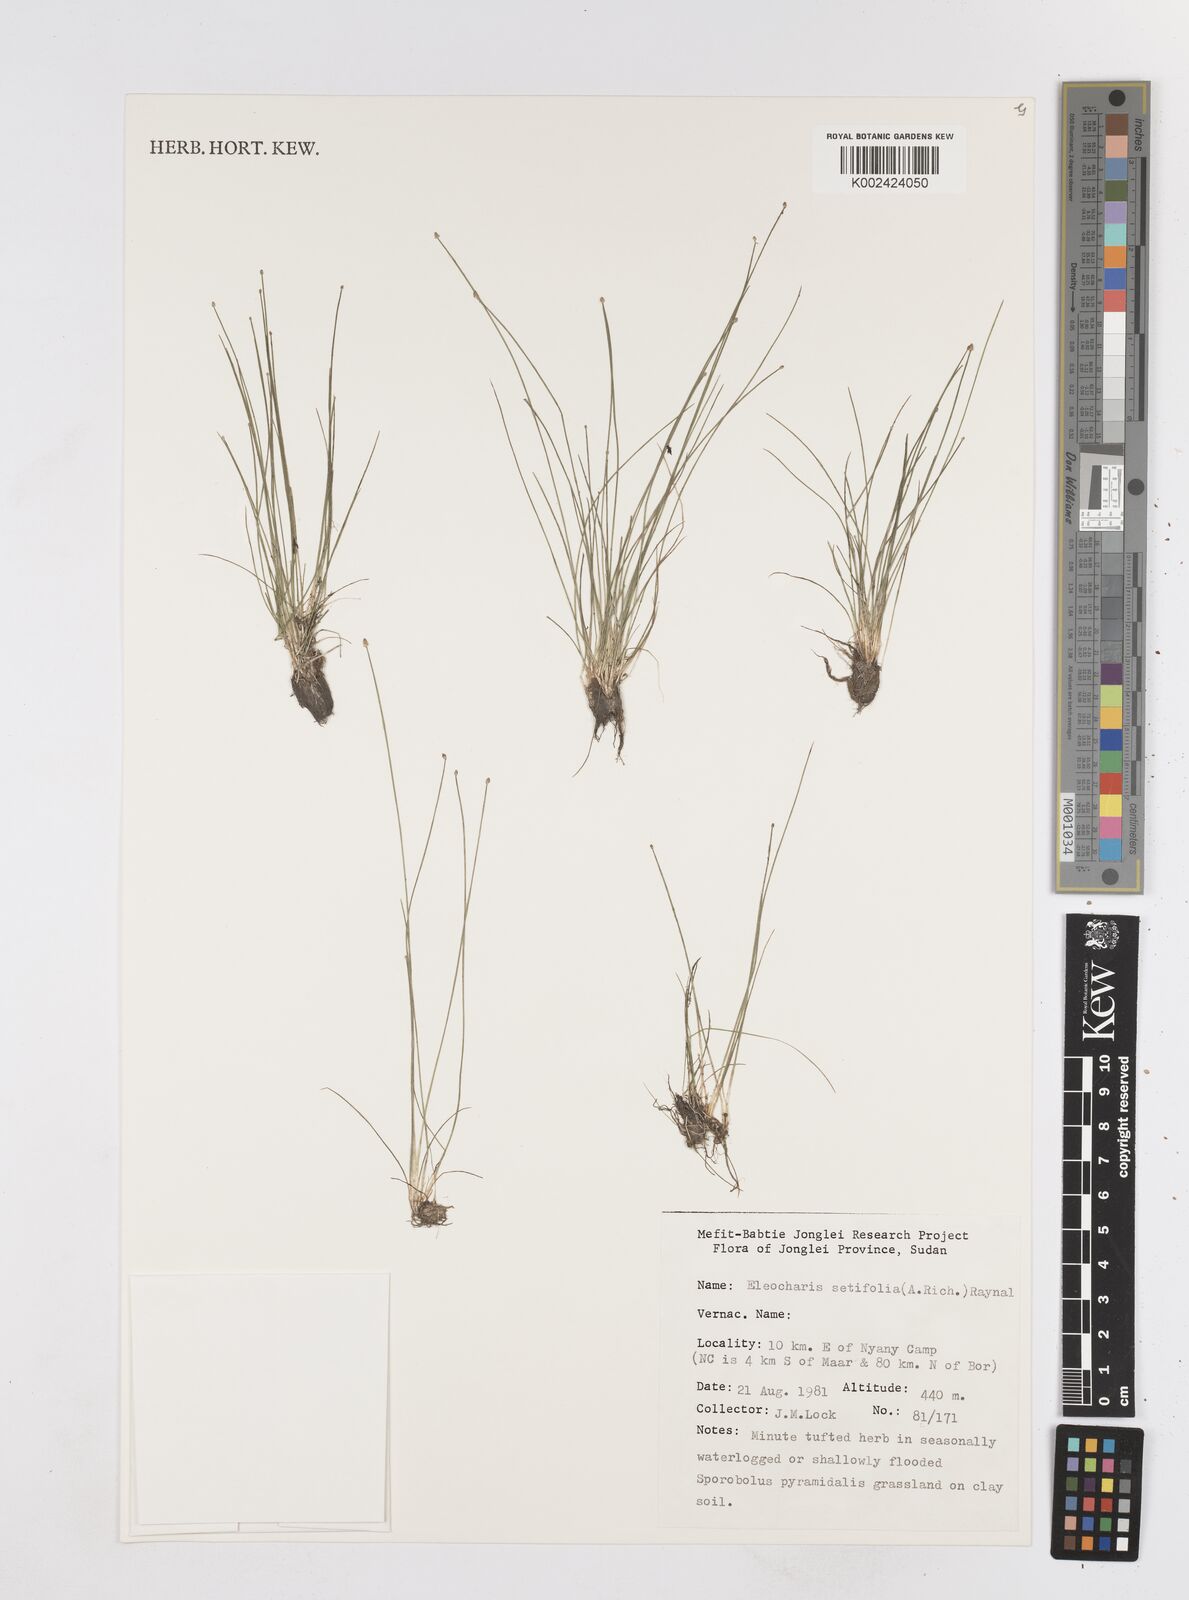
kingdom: Plantae
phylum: Tracheophyta
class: Liliopsida
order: Poales
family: Cyperaceae
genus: Eleocharis
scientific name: Eleocharis setifolia
